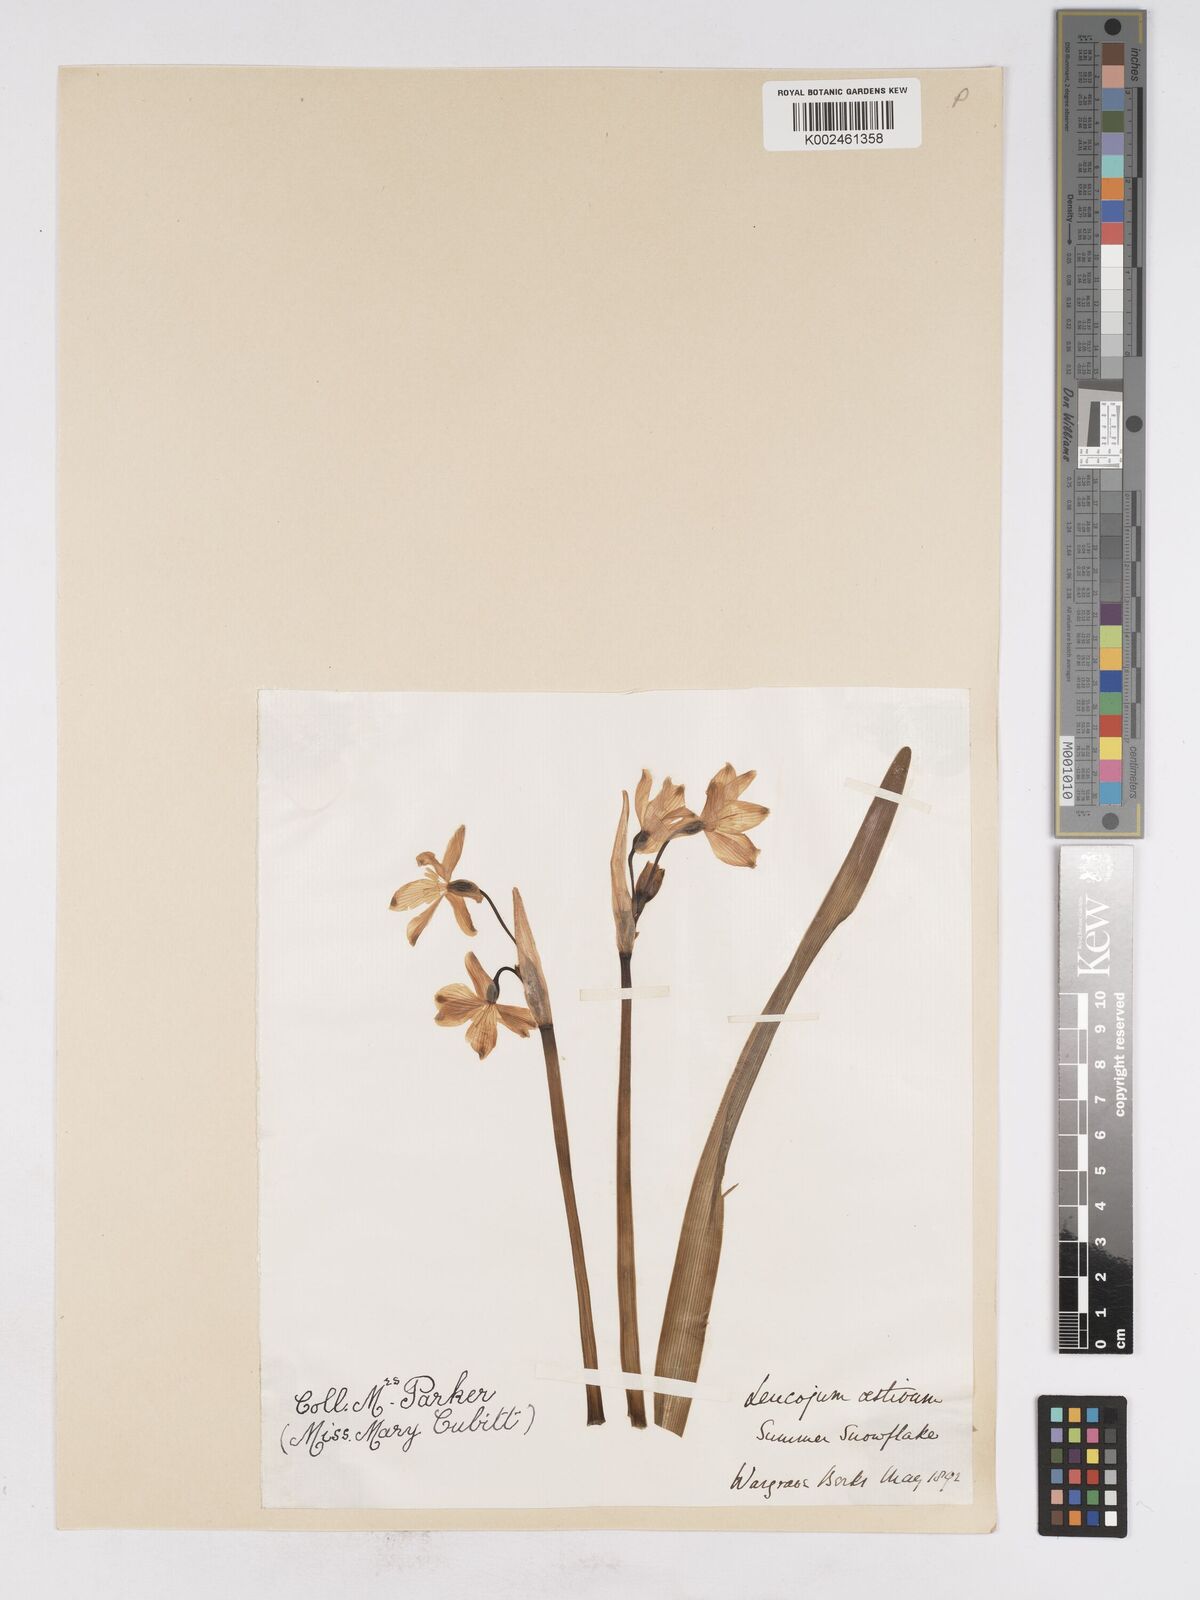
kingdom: Plantae
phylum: Tracheophyta
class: Liliopsida
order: Asparagales
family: Amaryllidaceae
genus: Leucojum
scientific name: Leucojum aestivum
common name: Summer snowflake
